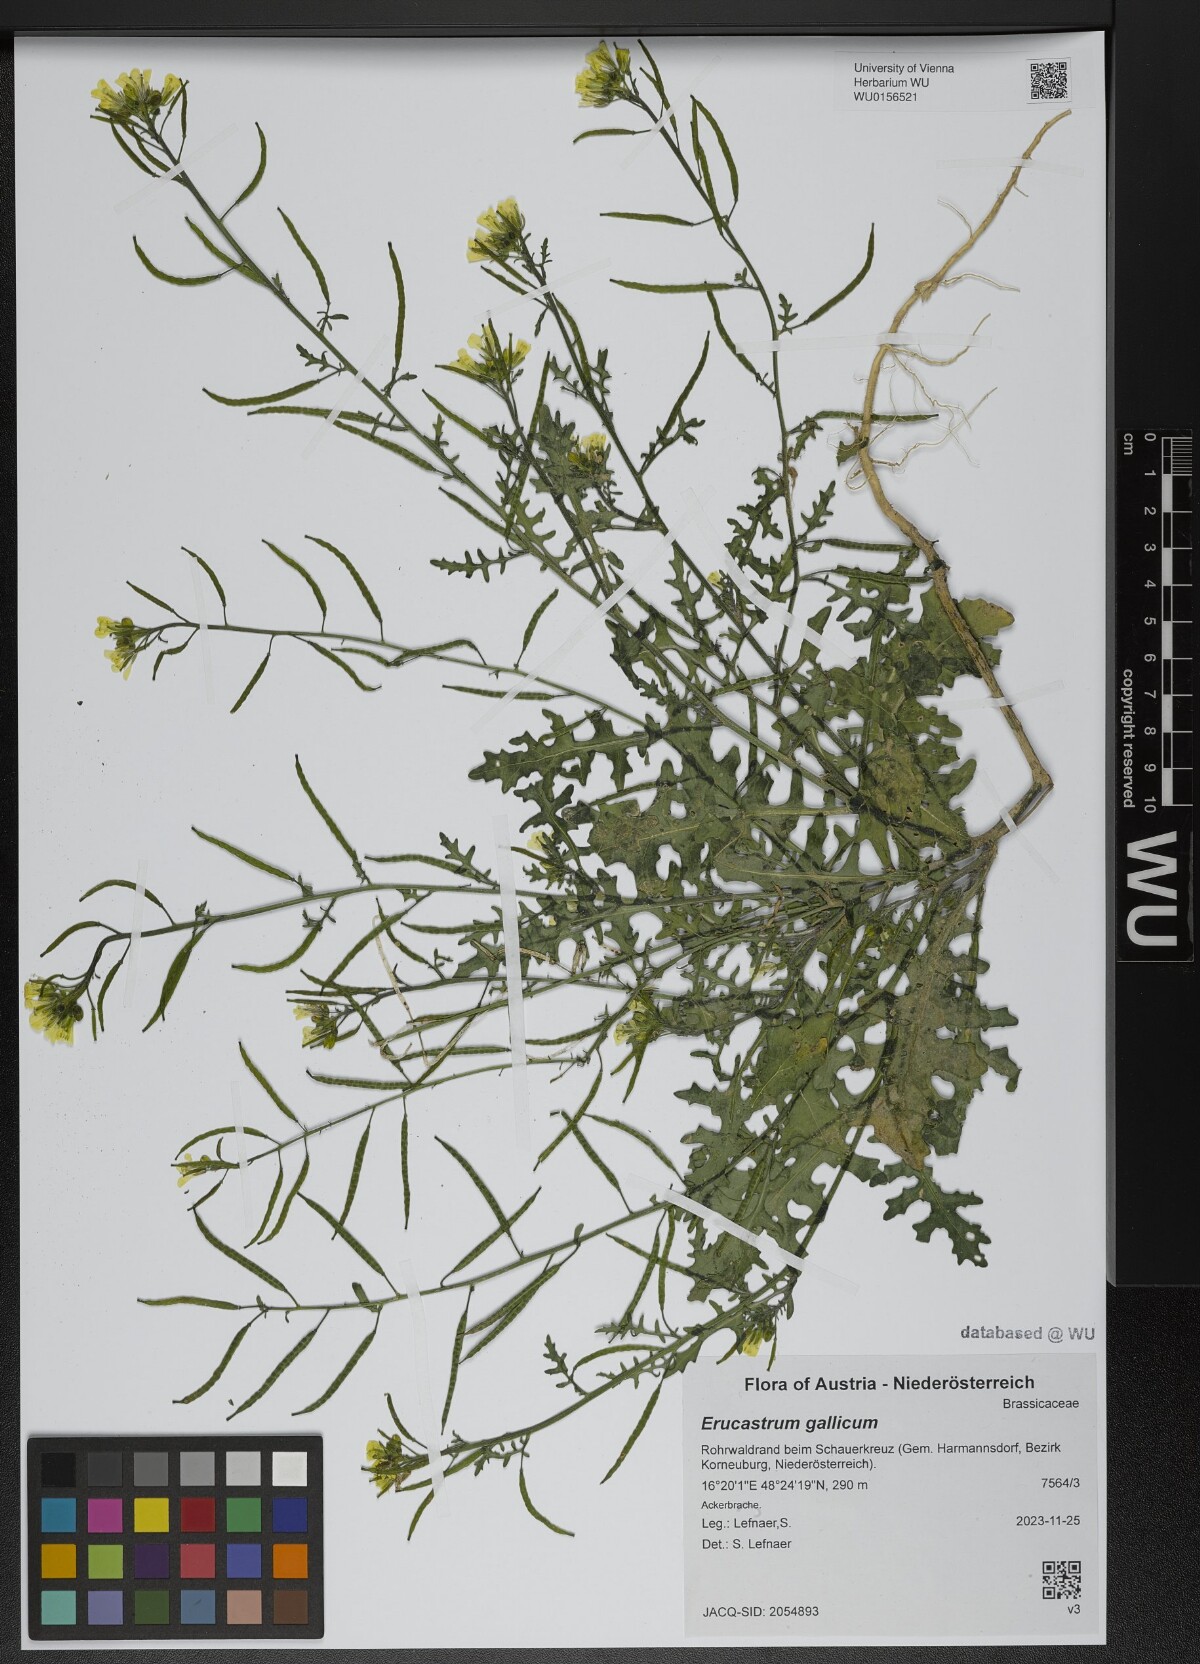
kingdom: Plantae
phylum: Tracheophyta
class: Magnoliopsida
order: Brassicales
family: Brassicaceae
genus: Erucastrum
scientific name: Erucastrum gallicum
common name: Hairy rocket
